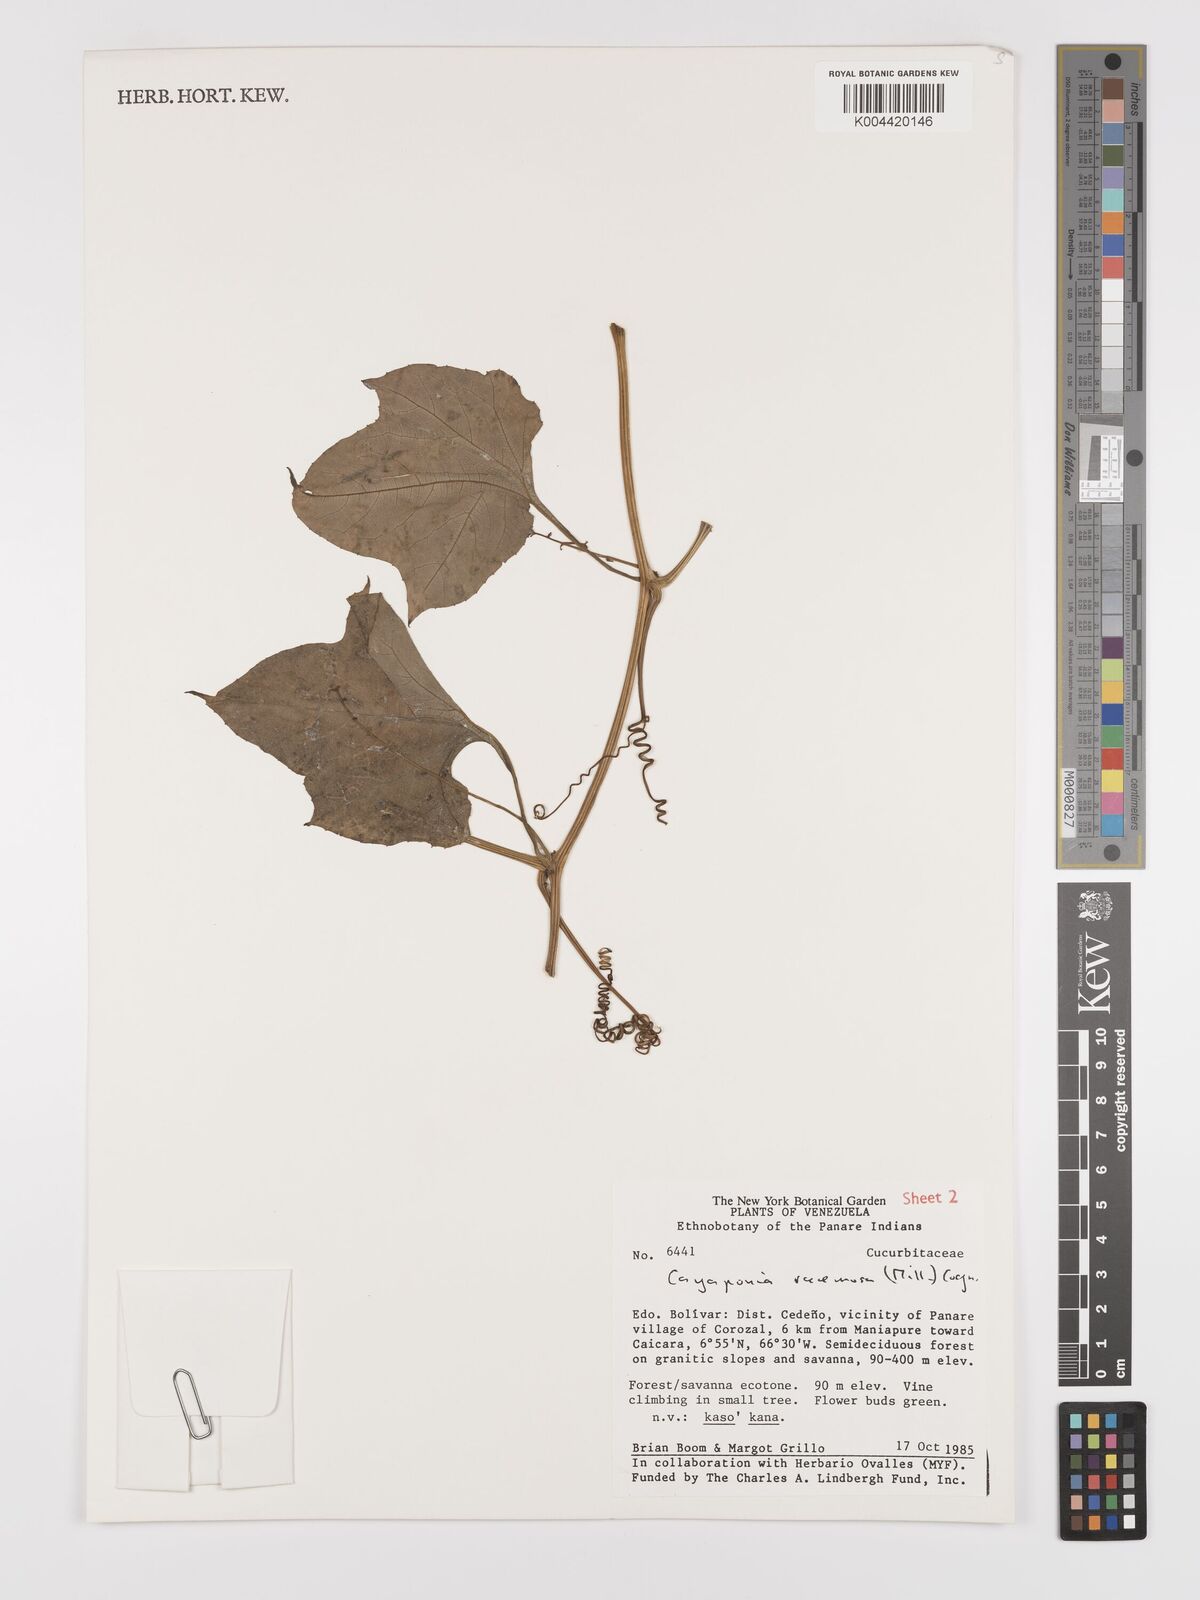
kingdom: Plantae
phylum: Tracheophyta
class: Magnoliopsida
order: Cucurbitales
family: Cucurbitaceae
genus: Cayaponia
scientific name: Cayaponia racemosa
